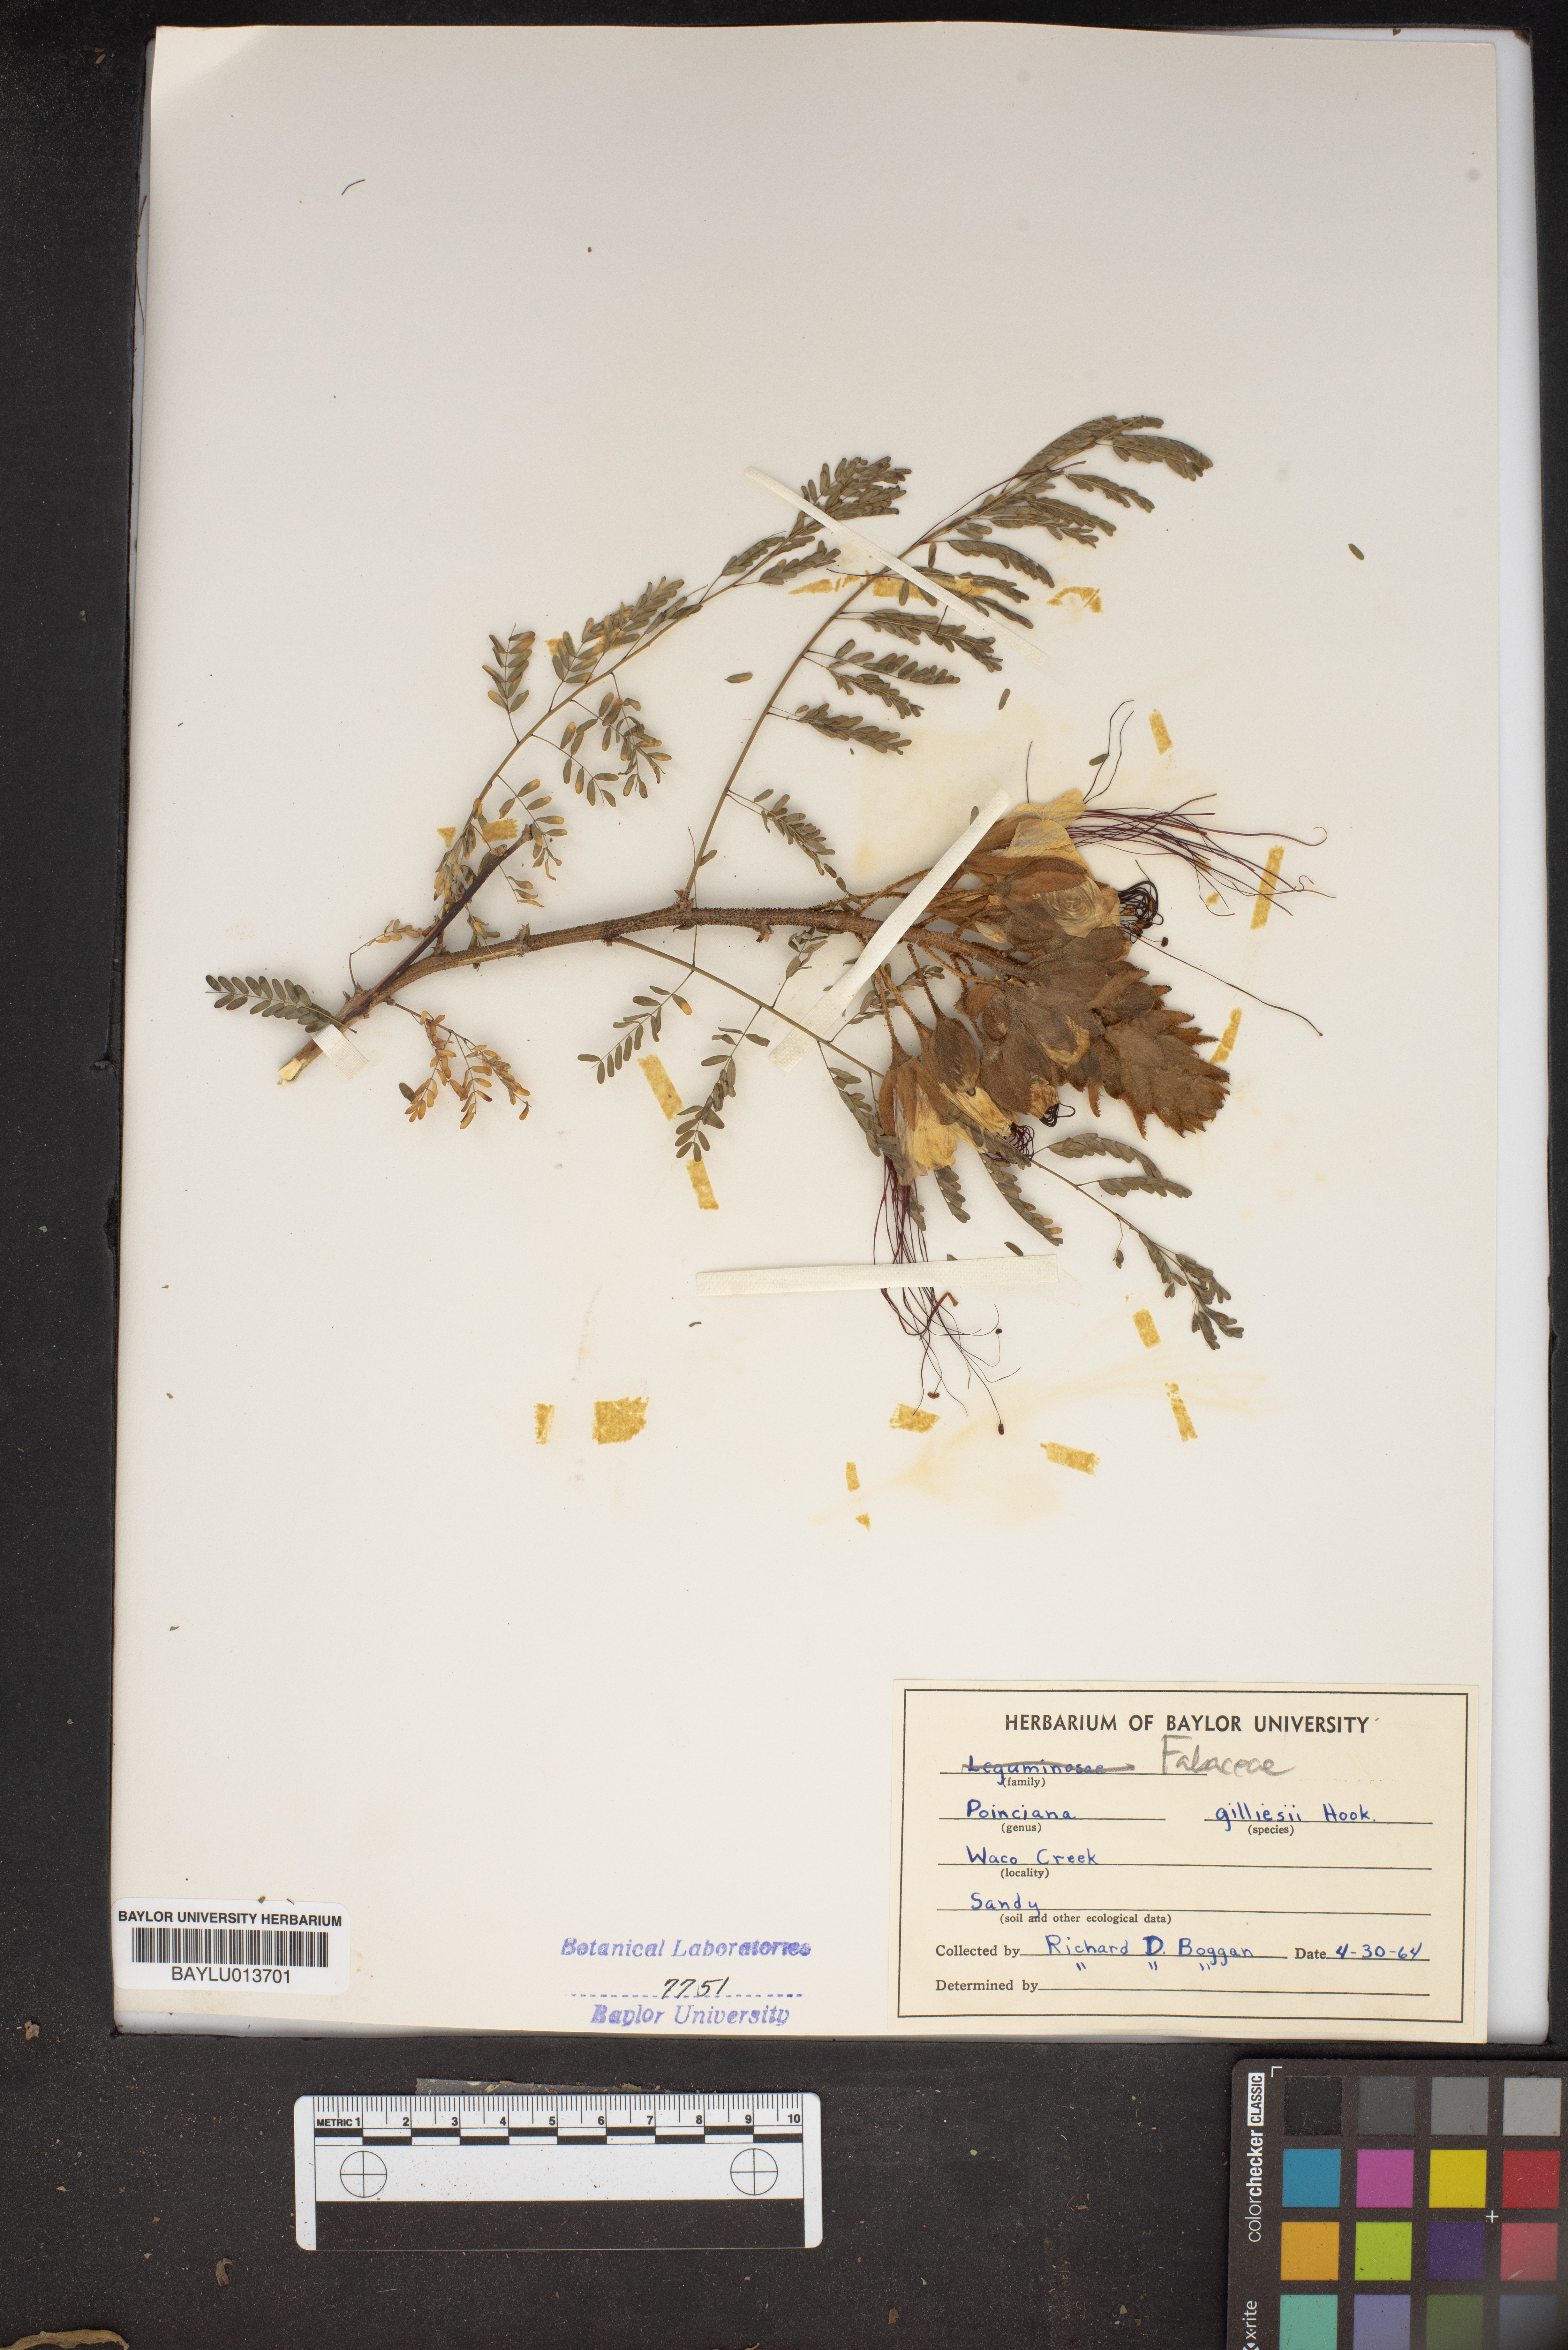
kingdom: Plantae
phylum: Tracheophyta
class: Magnoliopsida
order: Fabales
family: Fabaceae
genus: Erythrostemon
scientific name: Erythrostemon gilliesii
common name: Bird-of-paradise shrub
